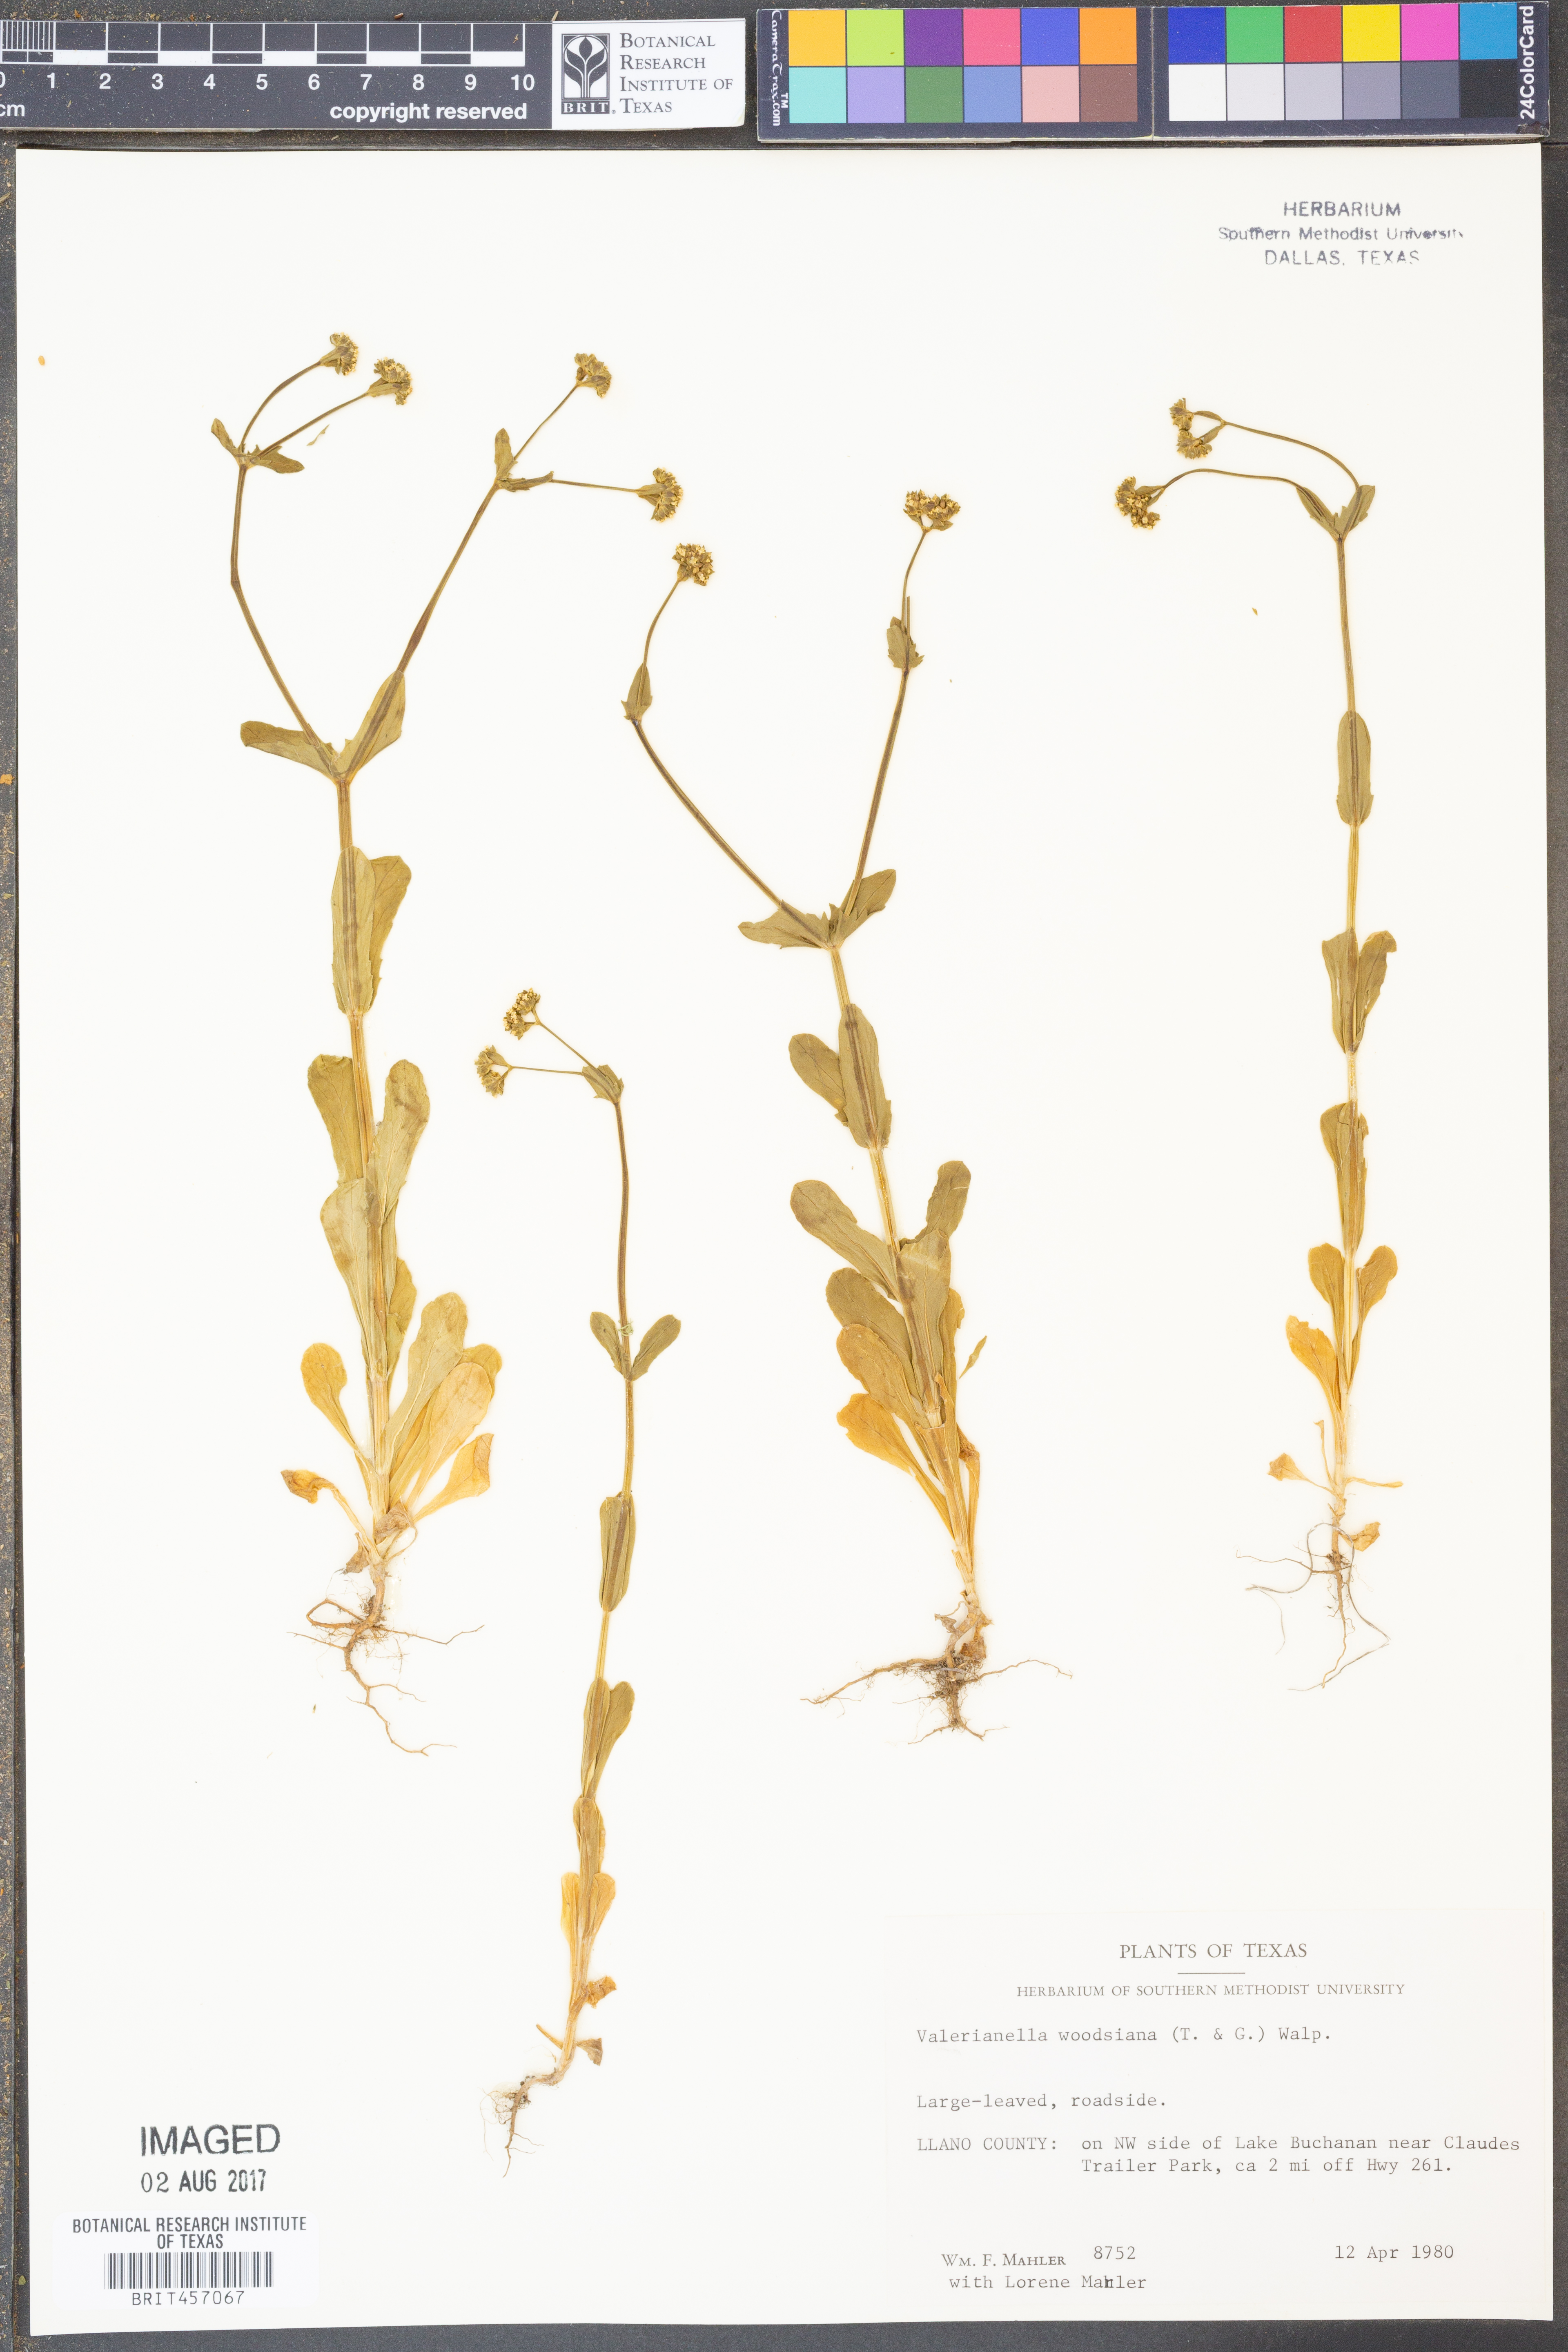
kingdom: Plantae
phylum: Tracheophyta
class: Magnoliopsida
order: Dipsacales
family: Caprifoliaceae
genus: Valerianella
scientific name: Valerianella radiata
